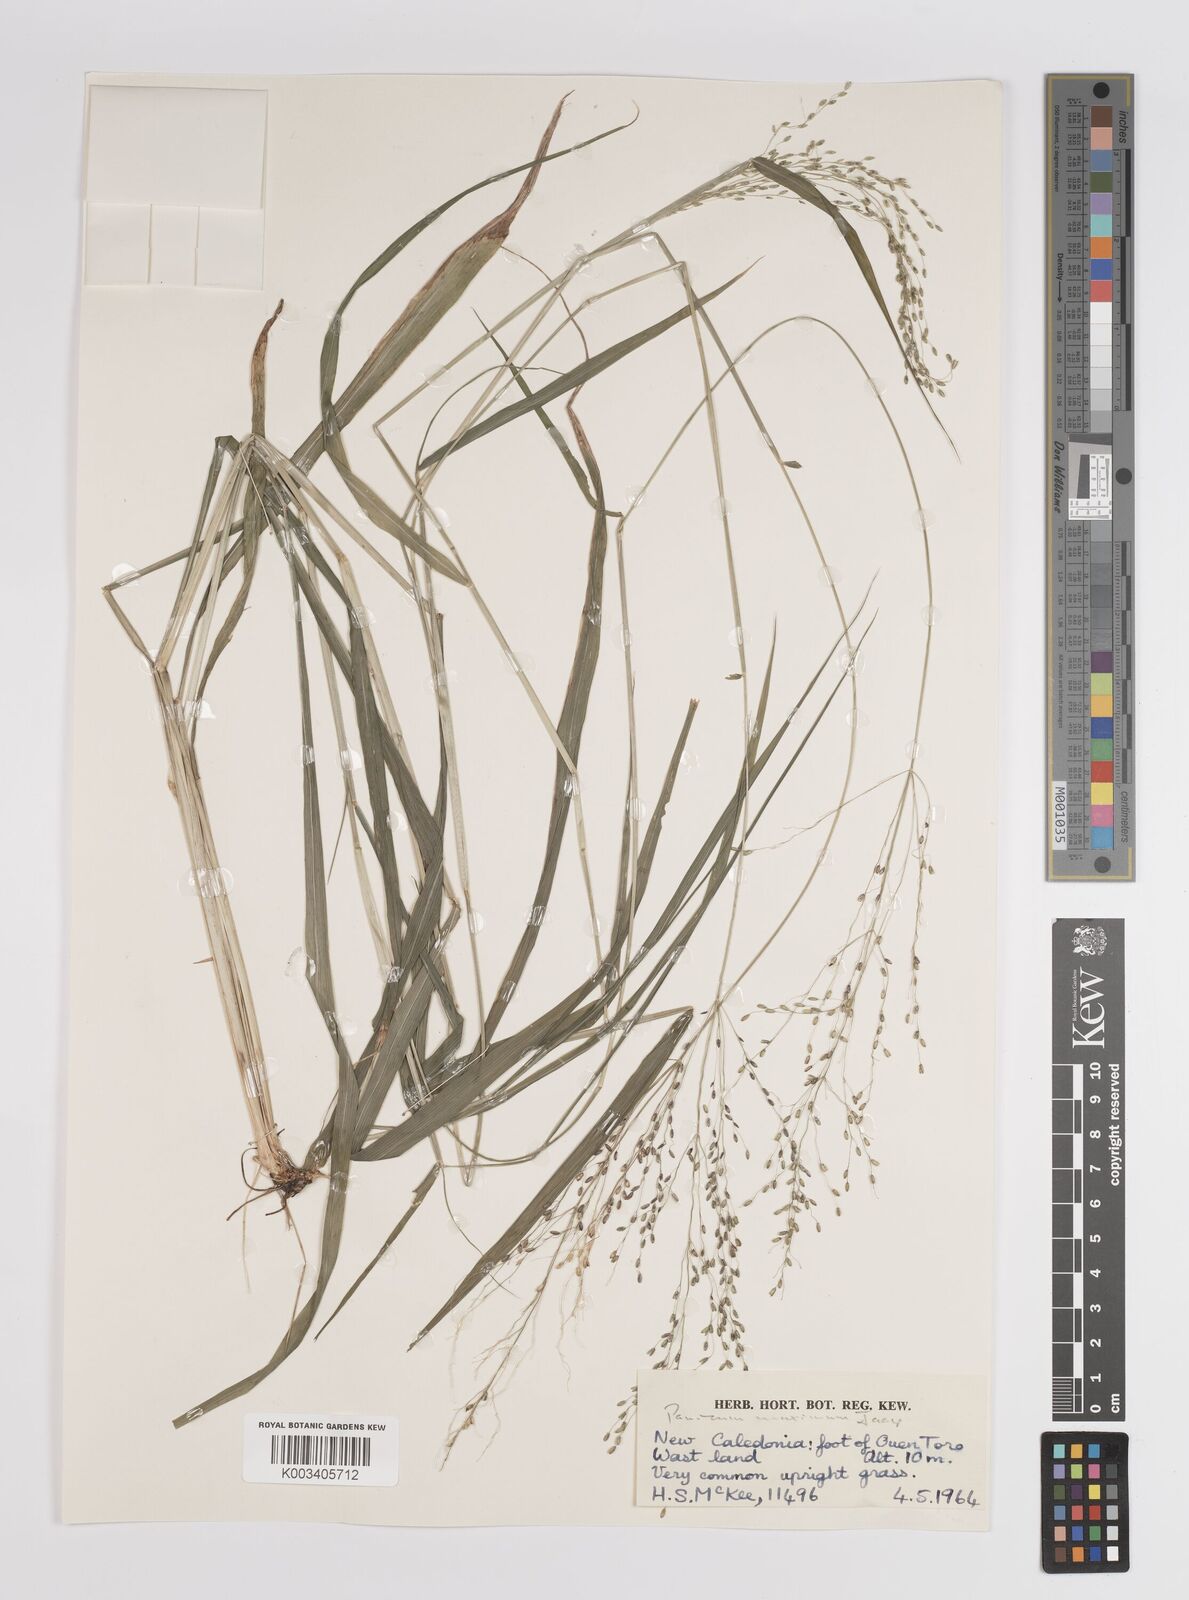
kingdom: Plantae
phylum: Tracheophyta
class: Liliopsida
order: Poales
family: Poaceae
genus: Megathyrsus
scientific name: Megathyrsus maximus
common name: Guineagrass
